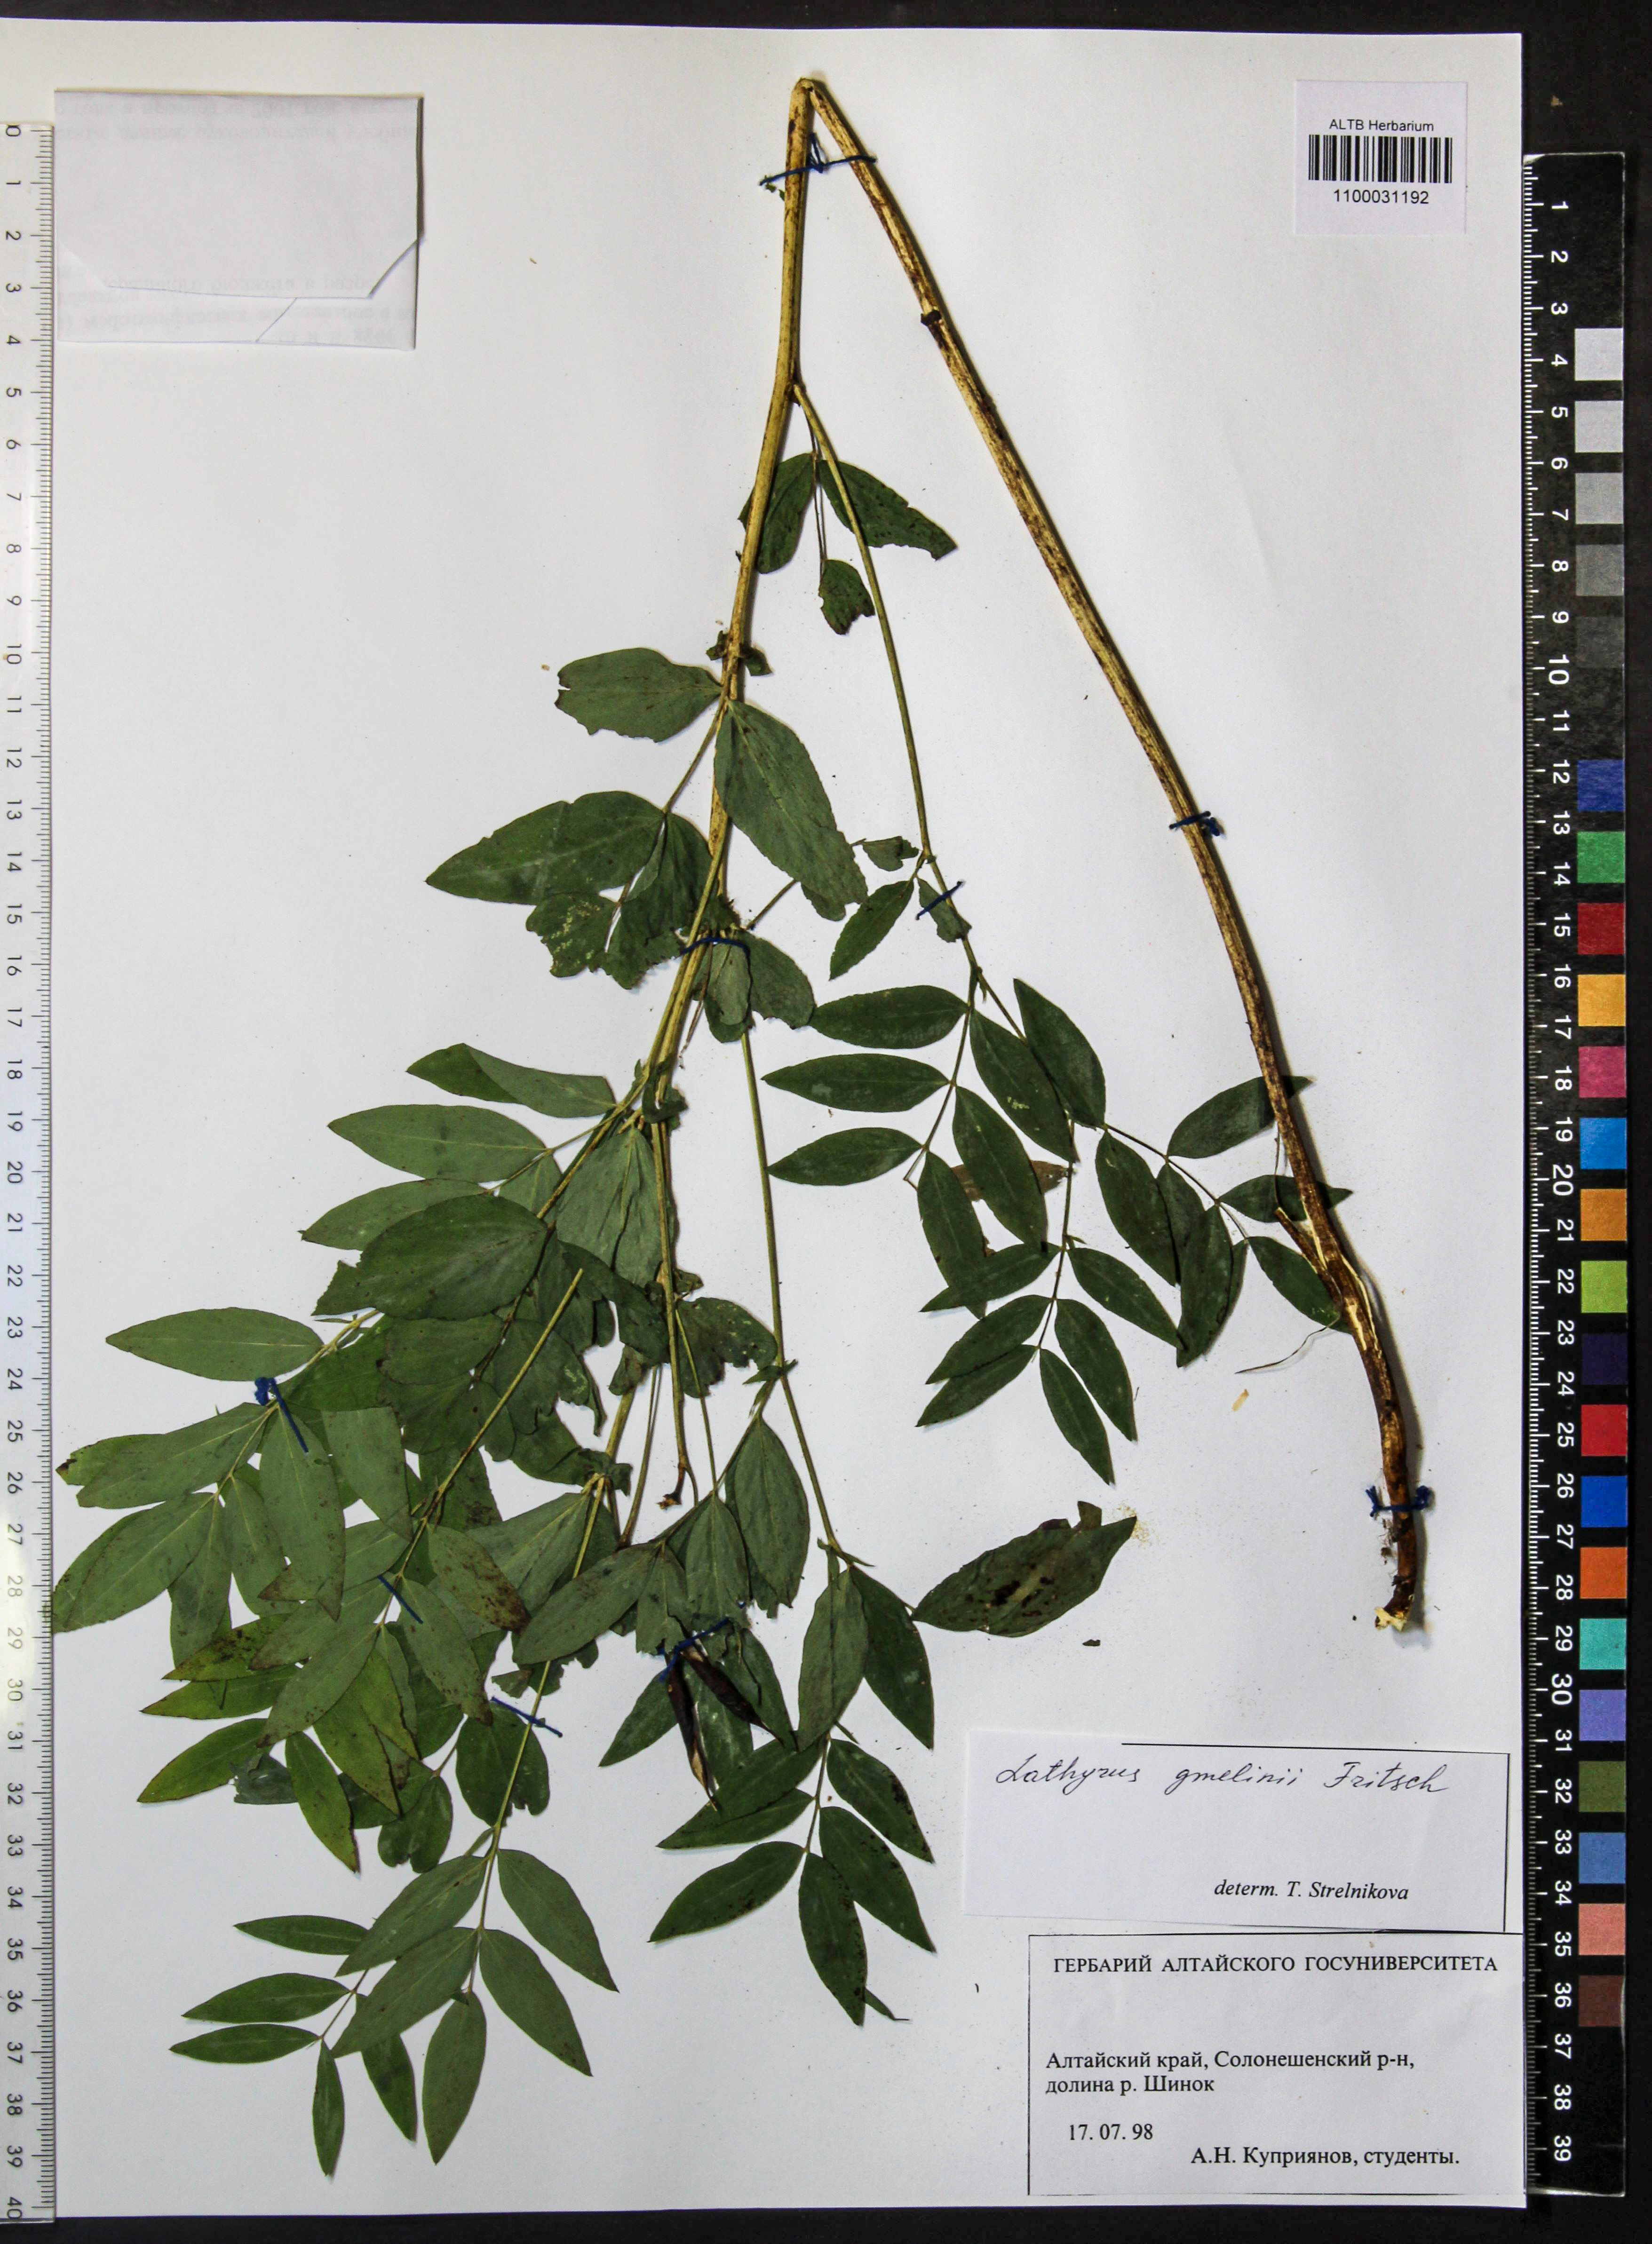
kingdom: Plantae
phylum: Tracheophyta
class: Magnoliopsida
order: Fabales
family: Fabaceae
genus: Lathyrus
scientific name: Lathyrus gmelinii
